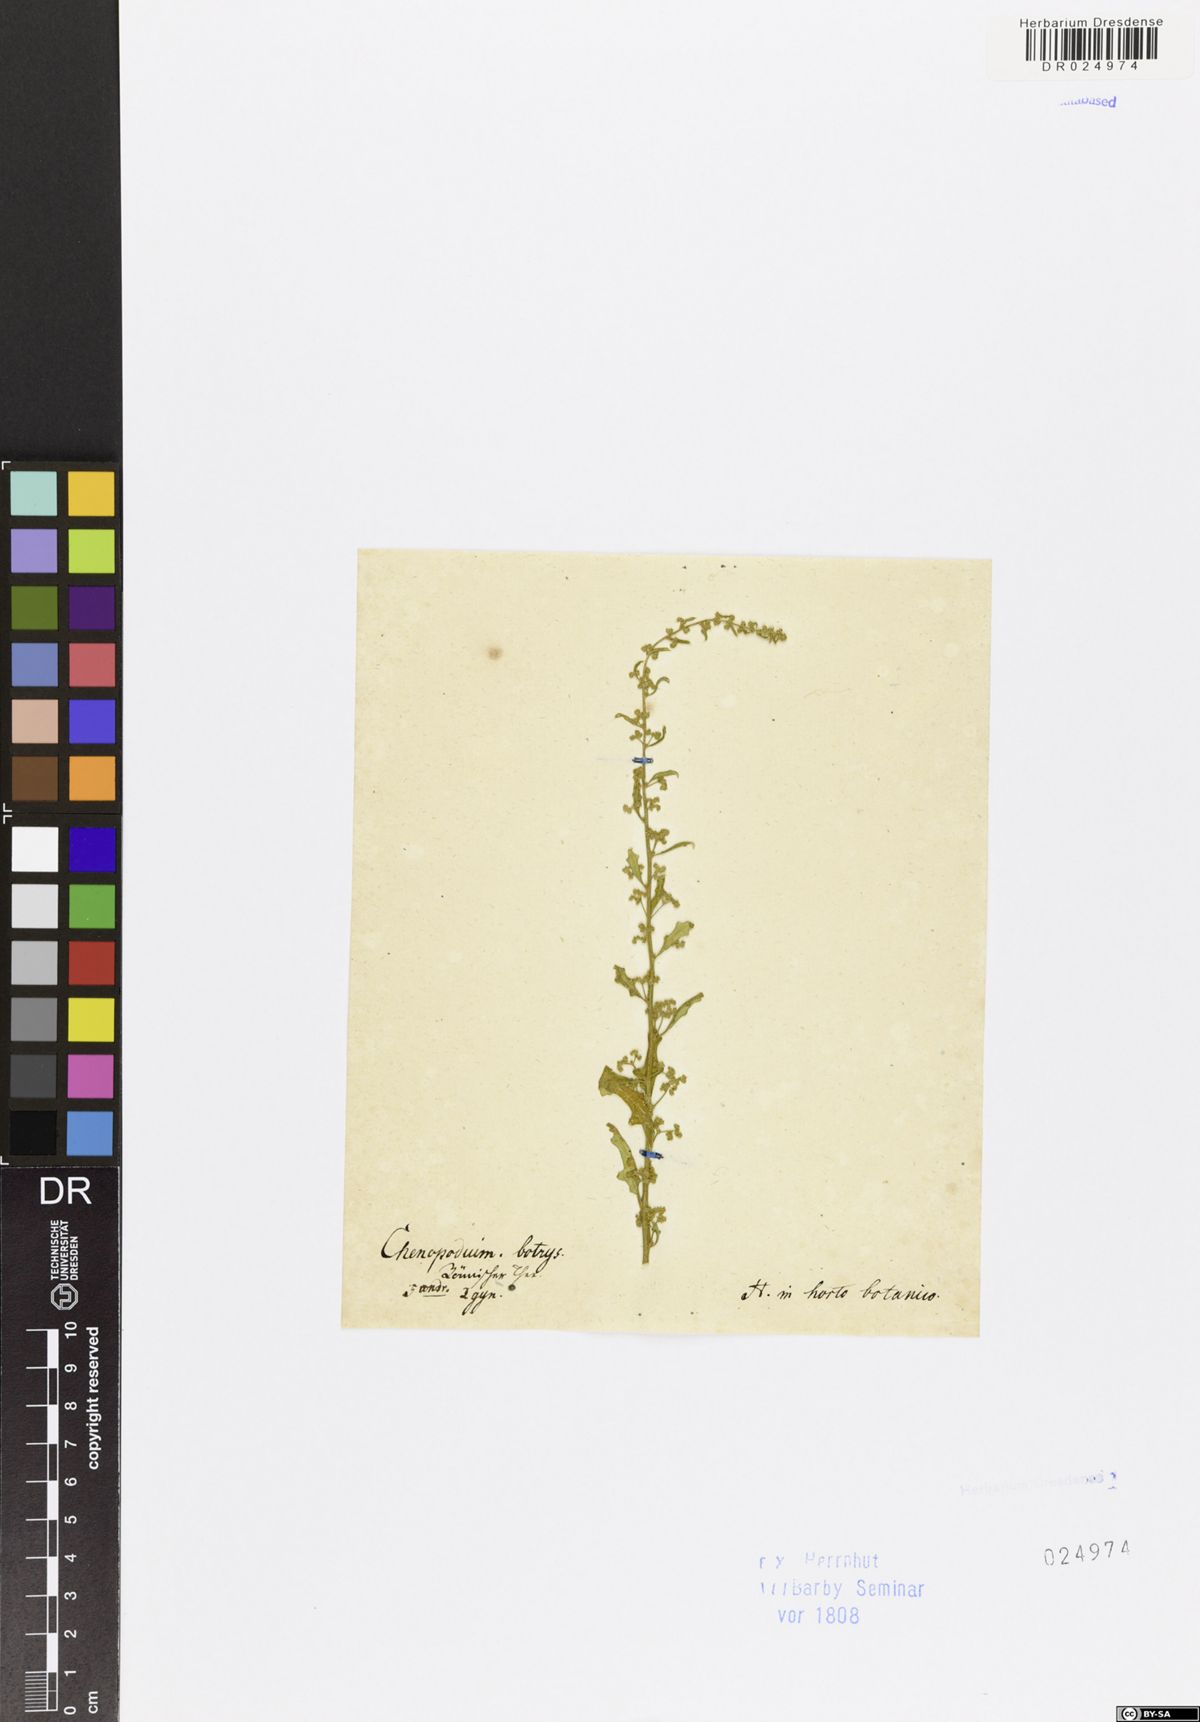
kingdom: Plantae
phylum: Tracheophyta
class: Magnoliopsida
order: Caryophyllales
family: Amaranthaceae
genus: Dysphania
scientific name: Dysphania botrys
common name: Feather-geranium
